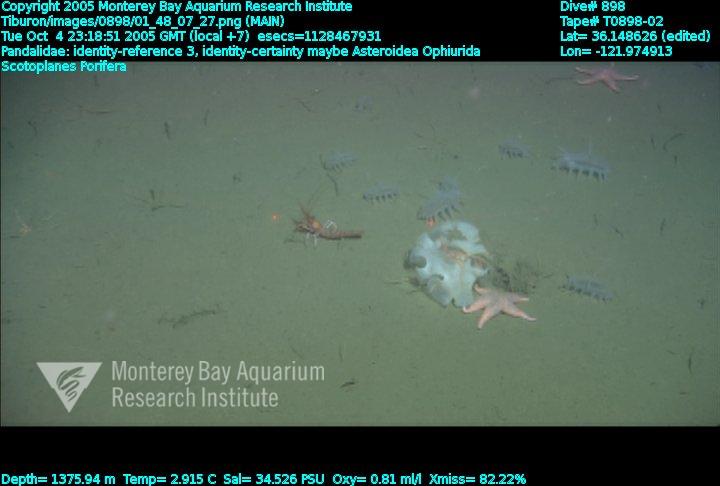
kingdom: Animalia
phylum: Porifera
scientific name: Porifera
